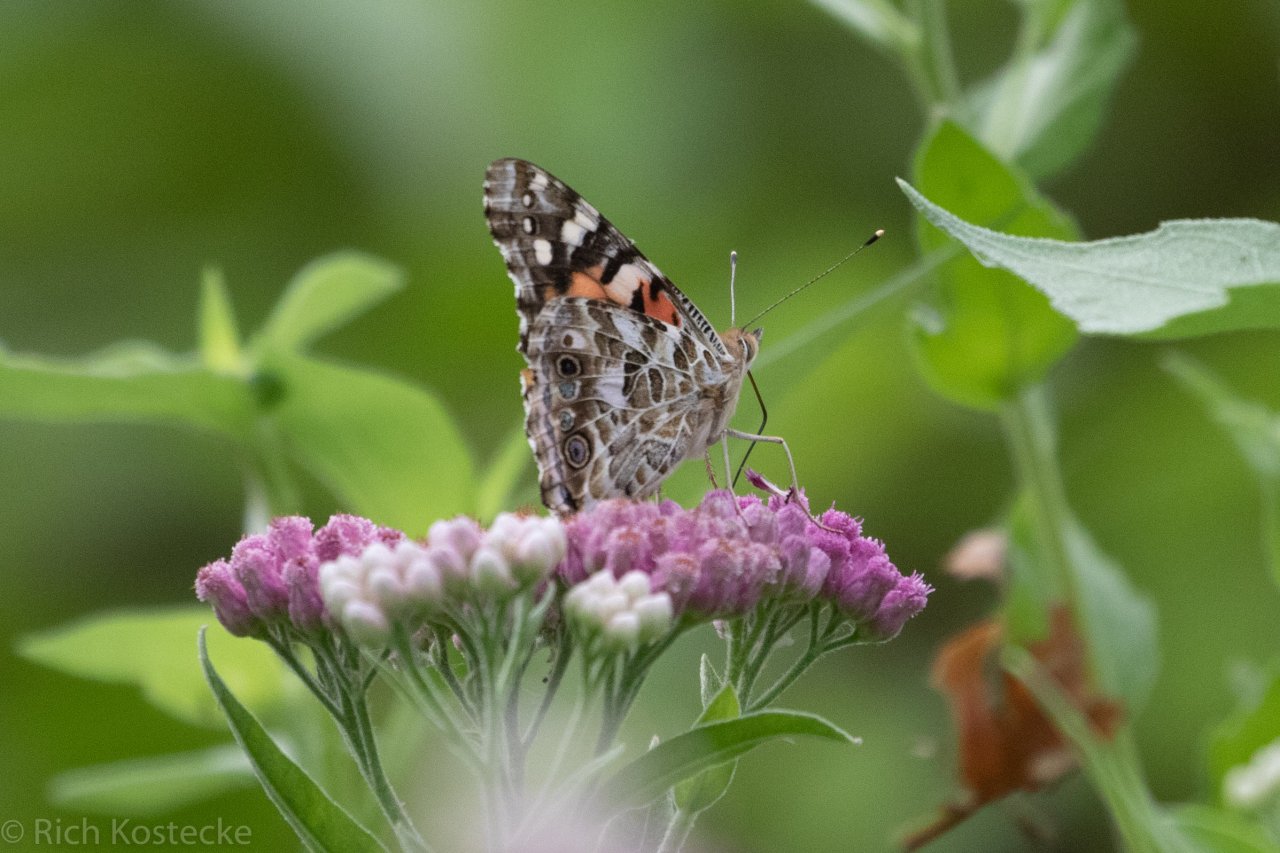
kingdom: Animalia
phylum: Arthropoda
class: Insecta
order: Lepidoptera
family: Nymphalidae
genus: Vanessa
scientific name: Vanessa cardui
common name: Painted Lady
